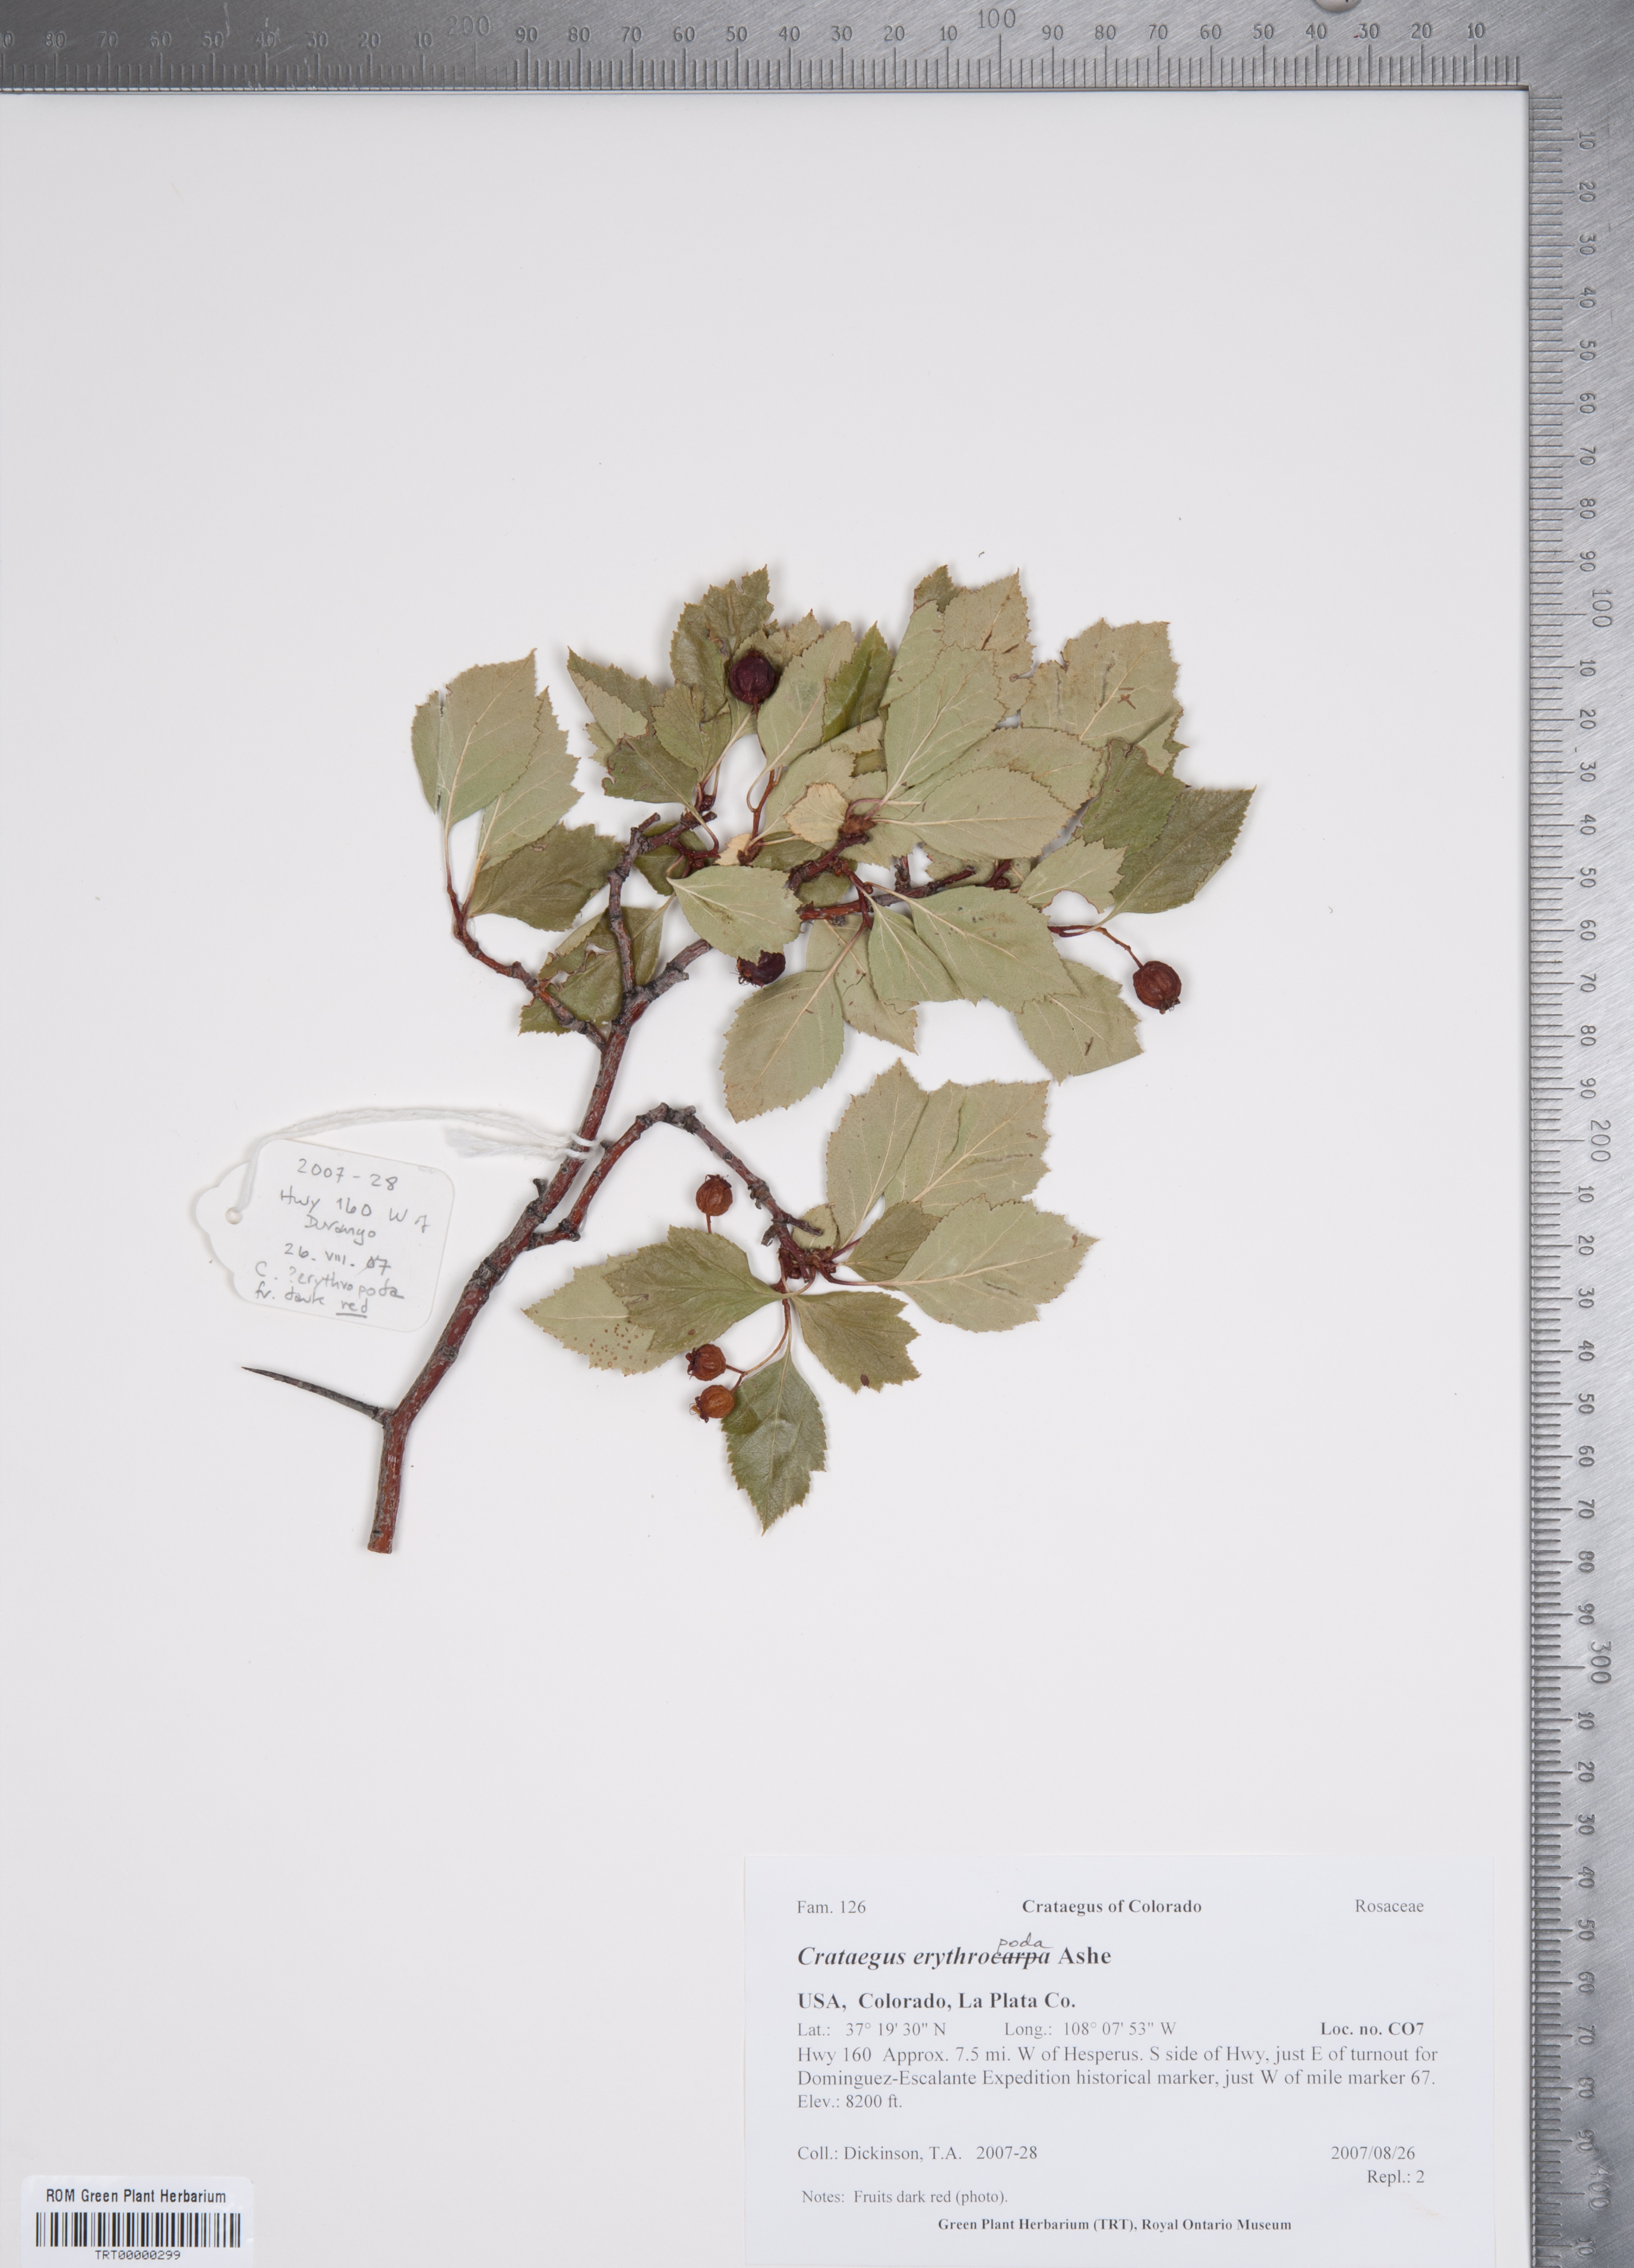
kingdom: Plantae
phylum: Tracheophyta
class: Magnoliopsida
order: Rosales
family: Rosaceae
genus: Crataegus
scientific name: Crataegus erythropoda
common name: Cerro hawthorn
